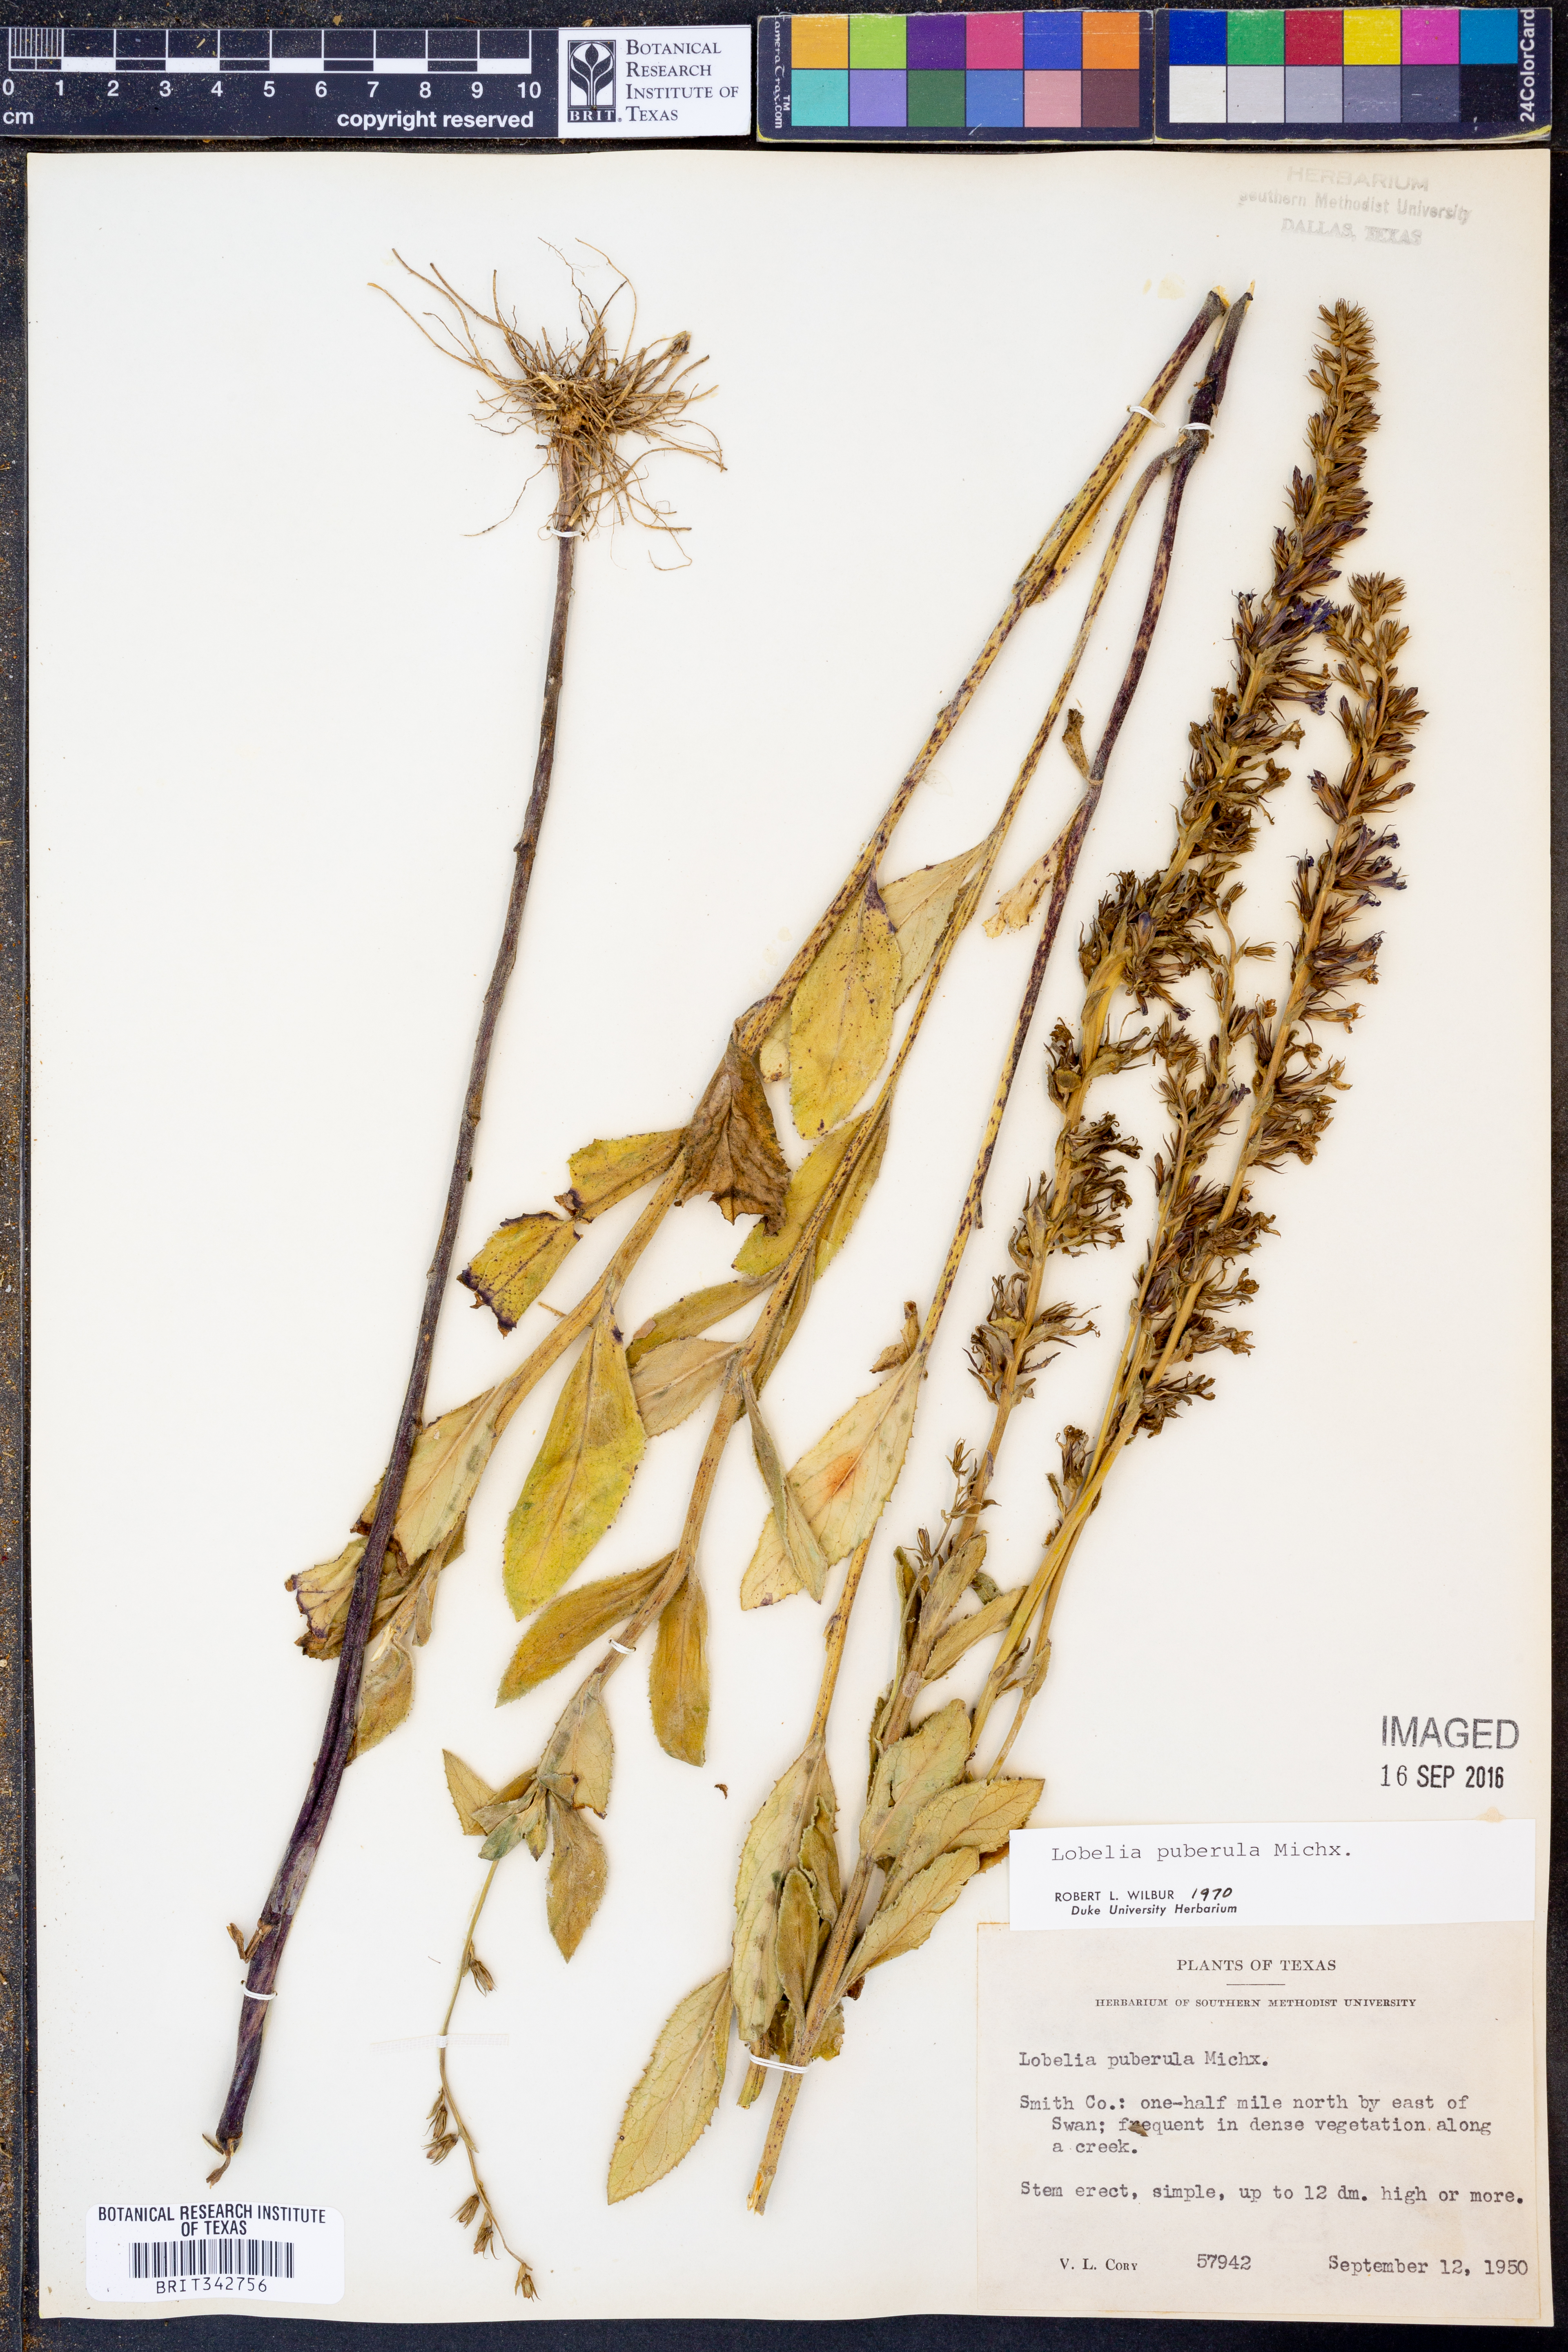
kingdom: Plantae
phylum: Tracheophyta
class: Magnoliopsida
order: Asterales
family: Campanulaceae
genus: Lobelia
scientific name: Lobelia puberula
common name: Purple dewdrop
